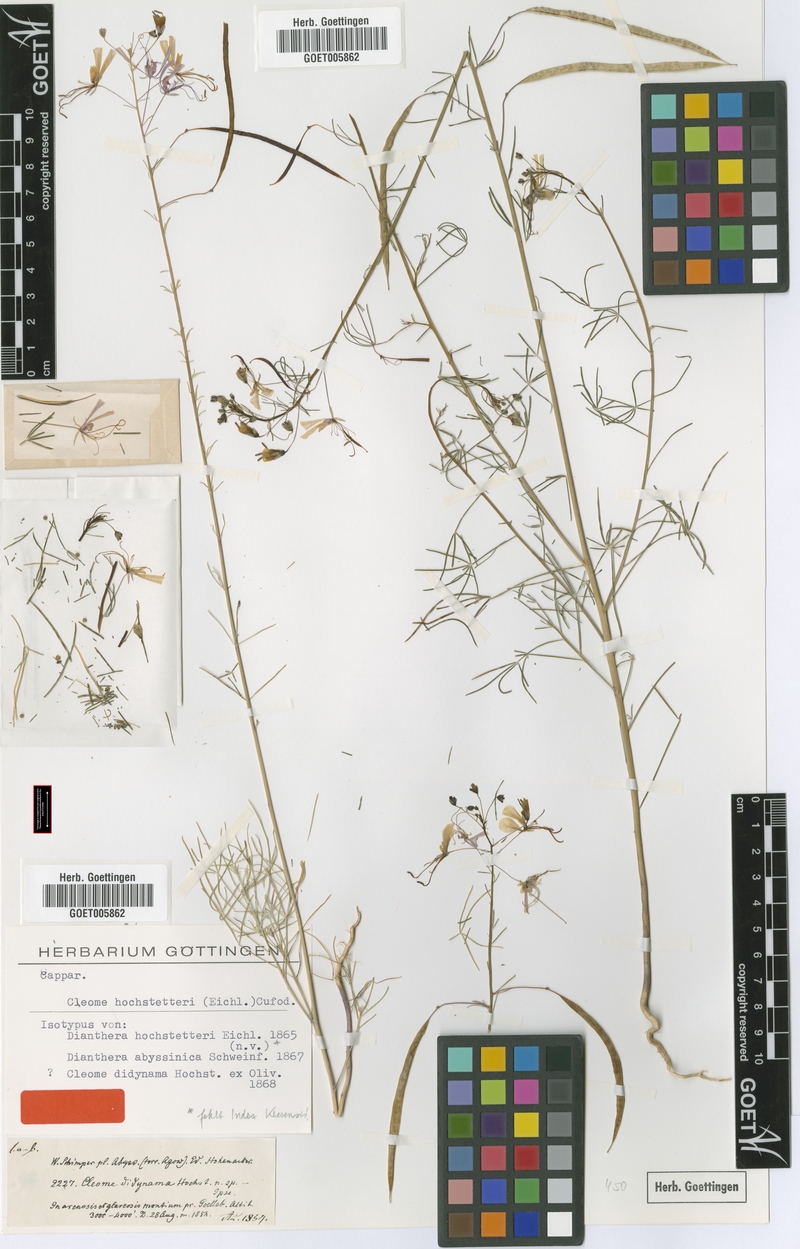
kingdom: Plantae
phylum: Tracheophyta
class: Magnoliopsida
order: Brassicales
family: Cleomaceae
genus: Coalisina
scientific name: Coalisina angustifolia
